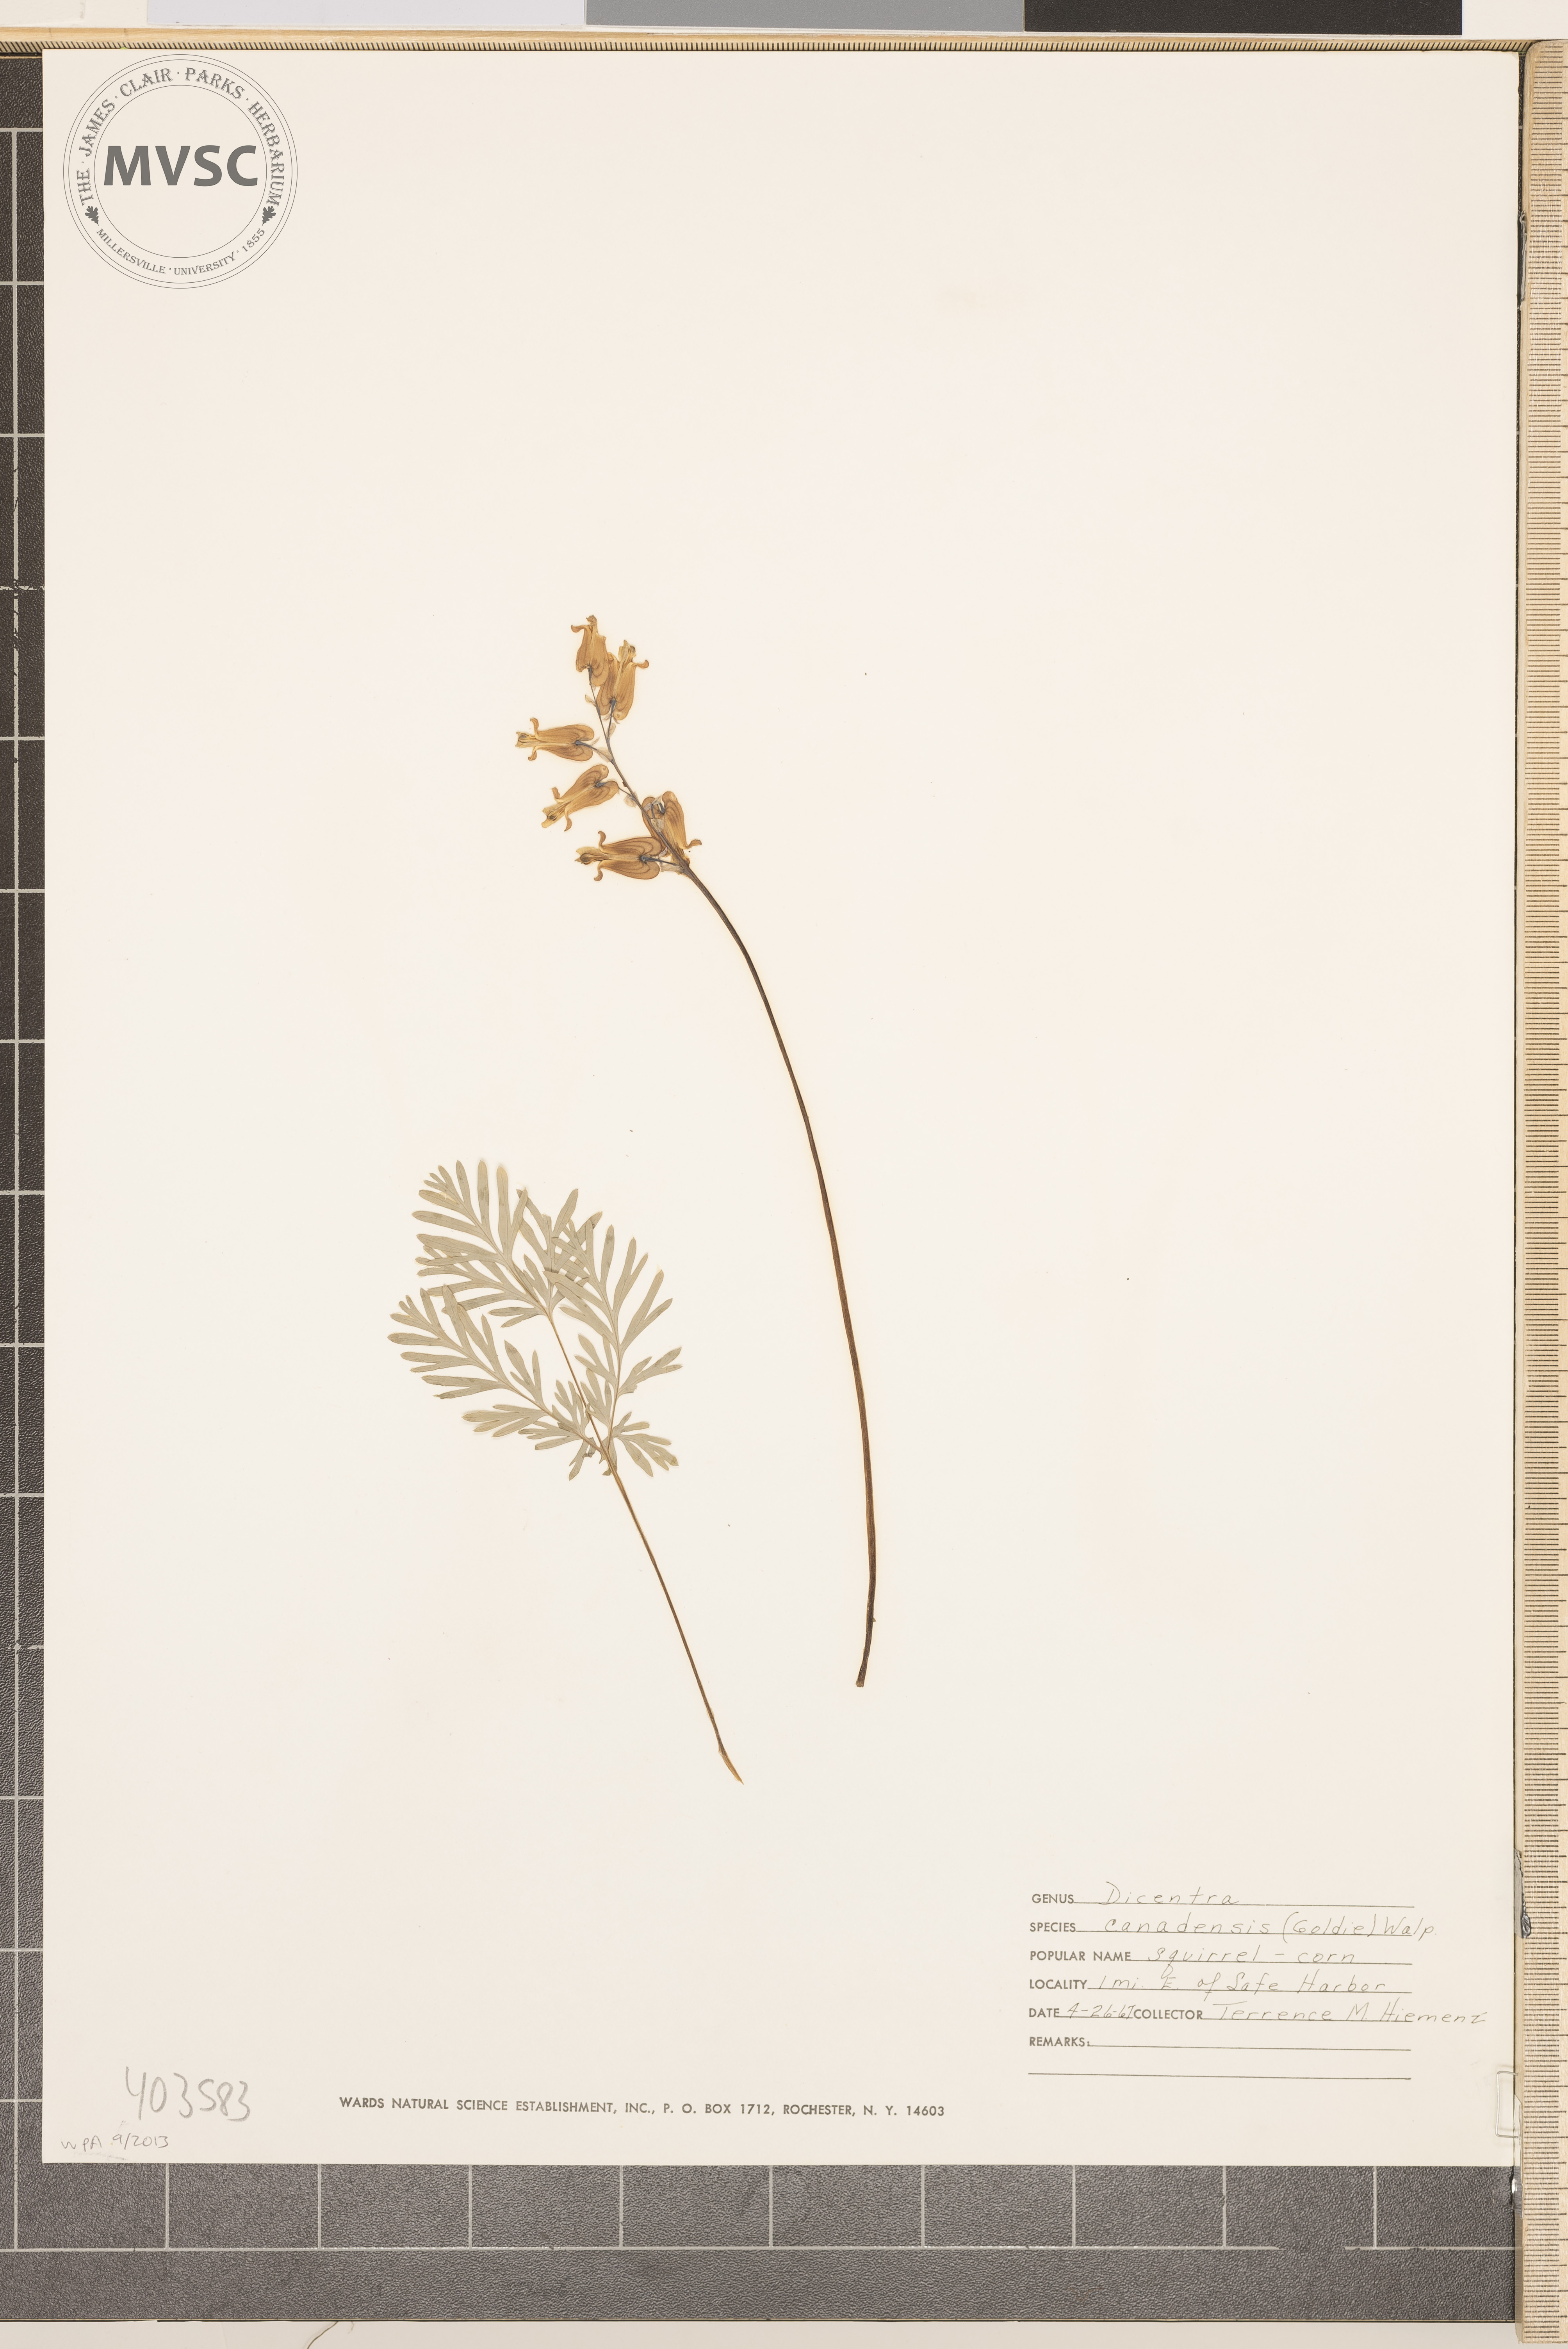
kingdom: Plantae
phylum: Tracheophyta
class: Magnoliopsida
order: Ranunculales
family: Papaveraceae
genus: Dicentra
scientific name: Dicentra canadensis
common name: Squirrel-corn
